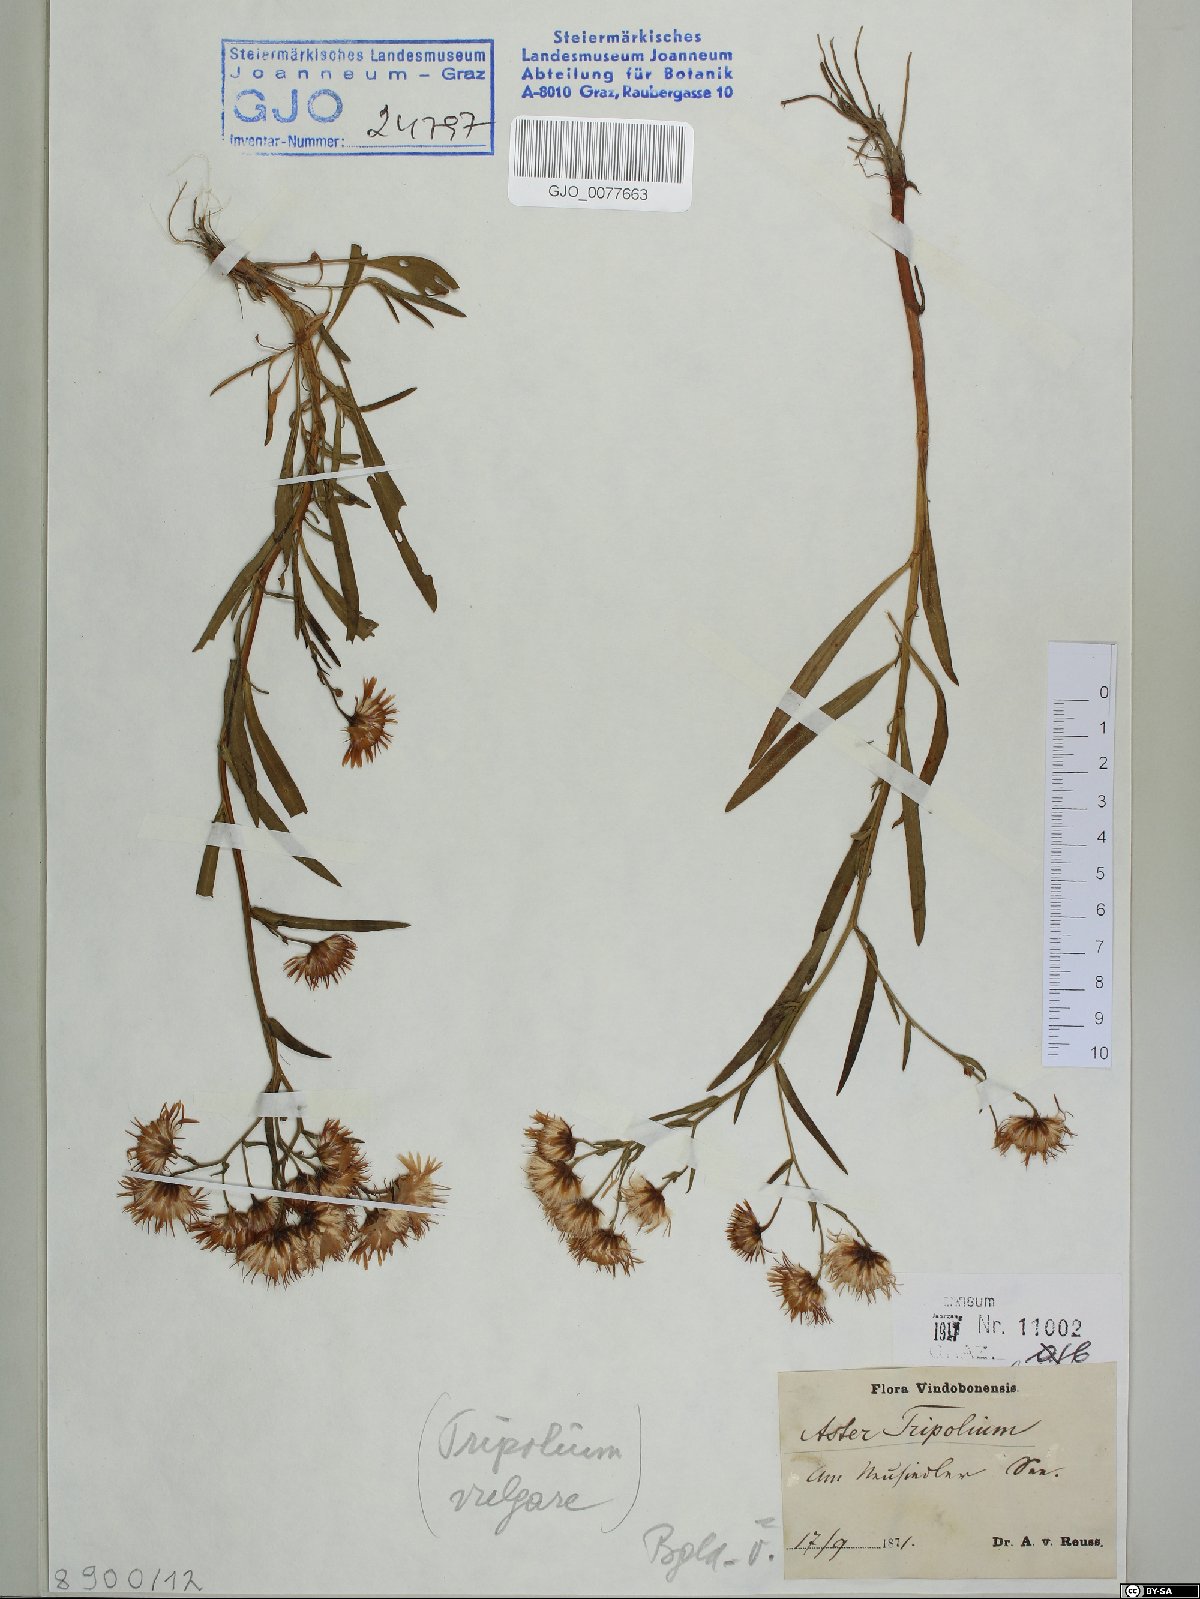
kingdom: Plantae
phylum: Tracheophyta
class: Magnoliopsida
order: Asterales
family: Asteraceae
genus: Tripolium
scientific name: Tripolium pannonicum
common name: Sea aster
